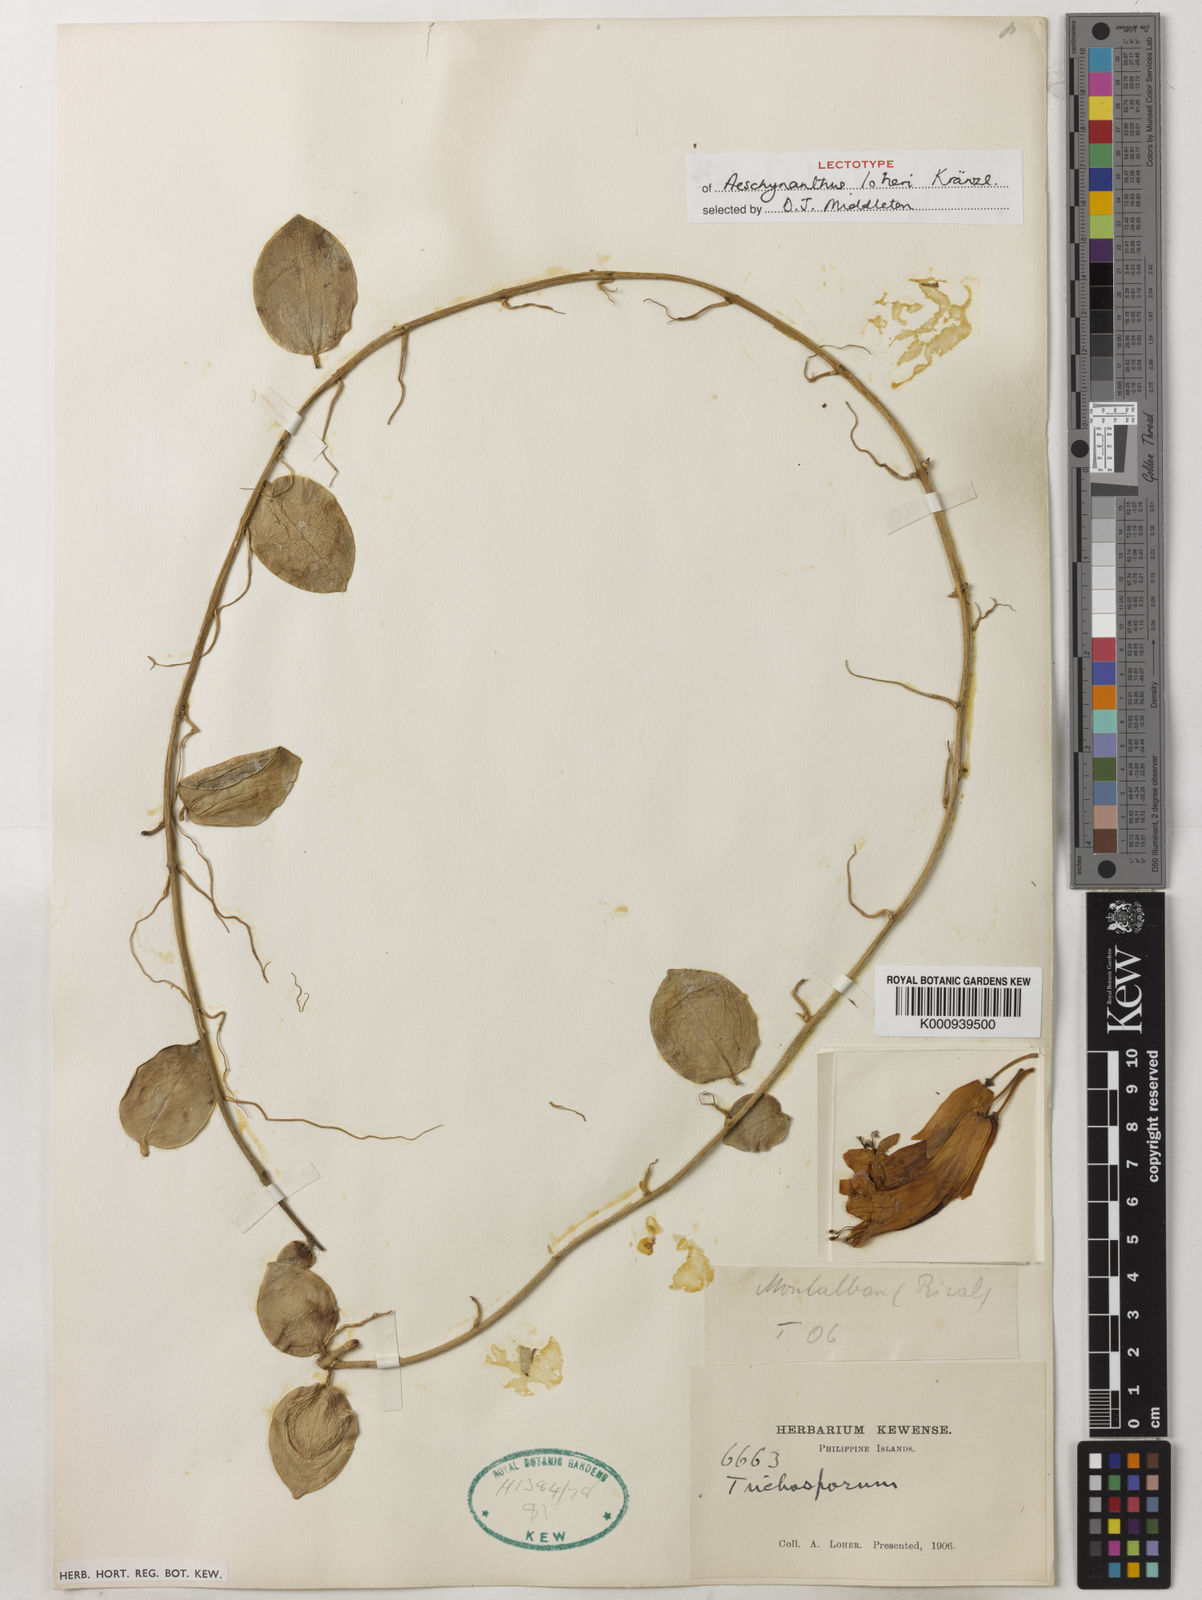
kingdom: Plantae
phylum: Tracheophyta
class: Magnoliopsida
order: Lamiales
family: Gesneriaceae
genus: Aeschynanthus
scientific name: Aeschynanthus loheri
